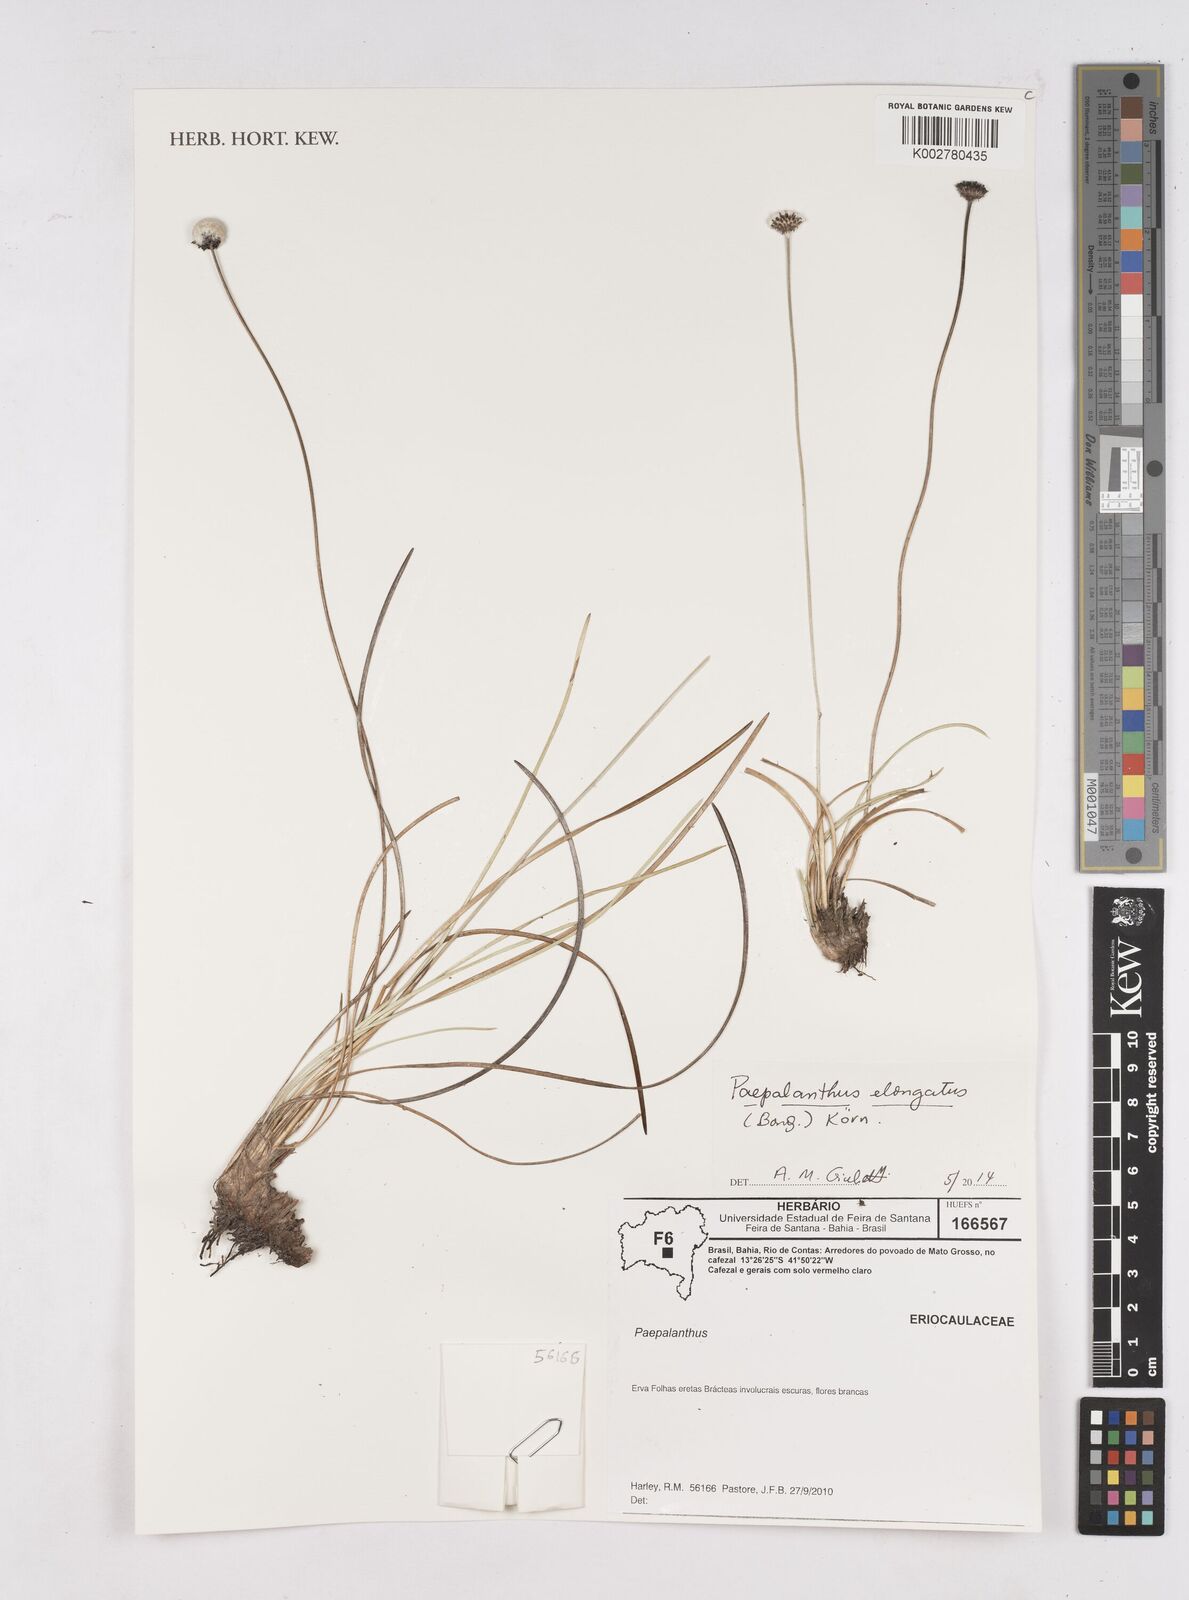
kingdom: Plantae
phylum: Tracheophyta
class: Liliopsida
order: Poales
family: Eriocaulaceae
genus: Paepalanthus
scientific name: Paepalanthus elongatus
